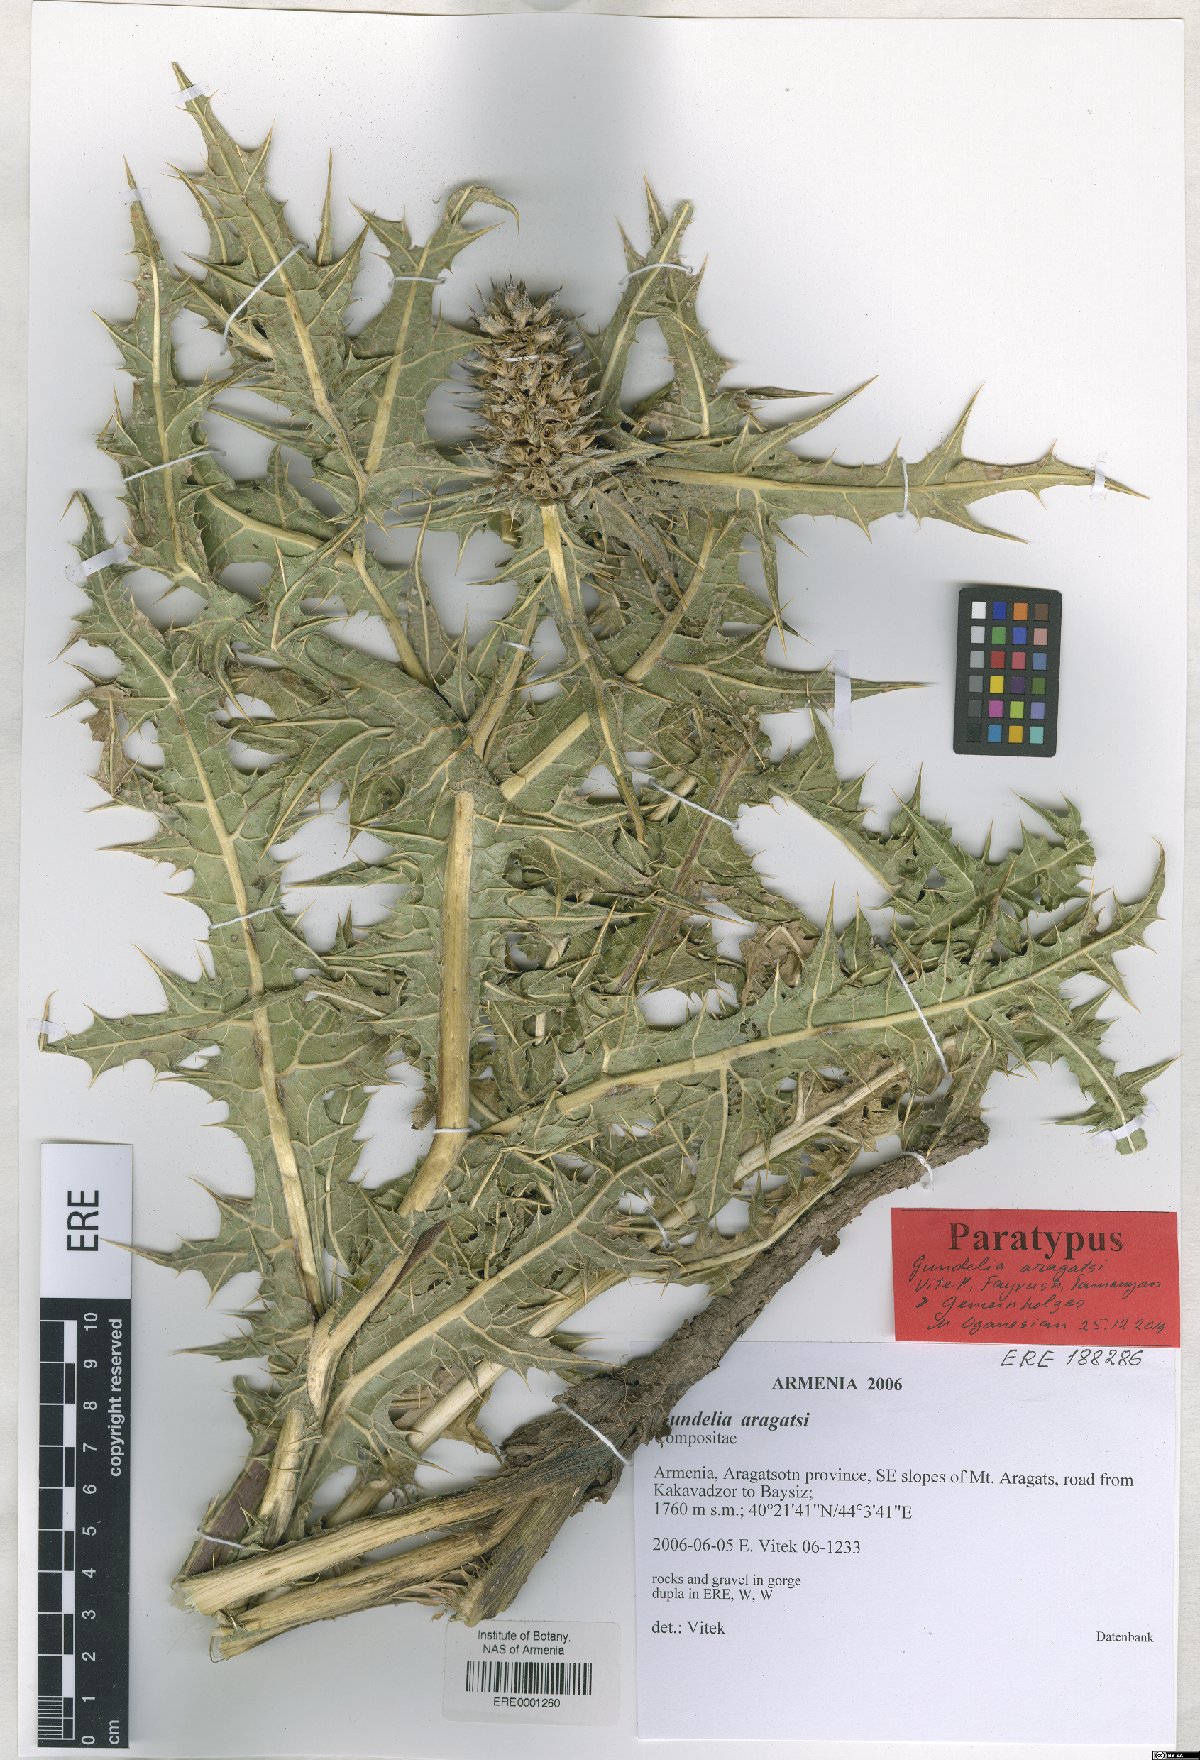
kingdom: Plantae
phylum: Tracheophyta
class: Magnoliopsida
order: Asterales
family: Asteraceae
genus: Gundelia
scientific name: Gundelia aragatsi
